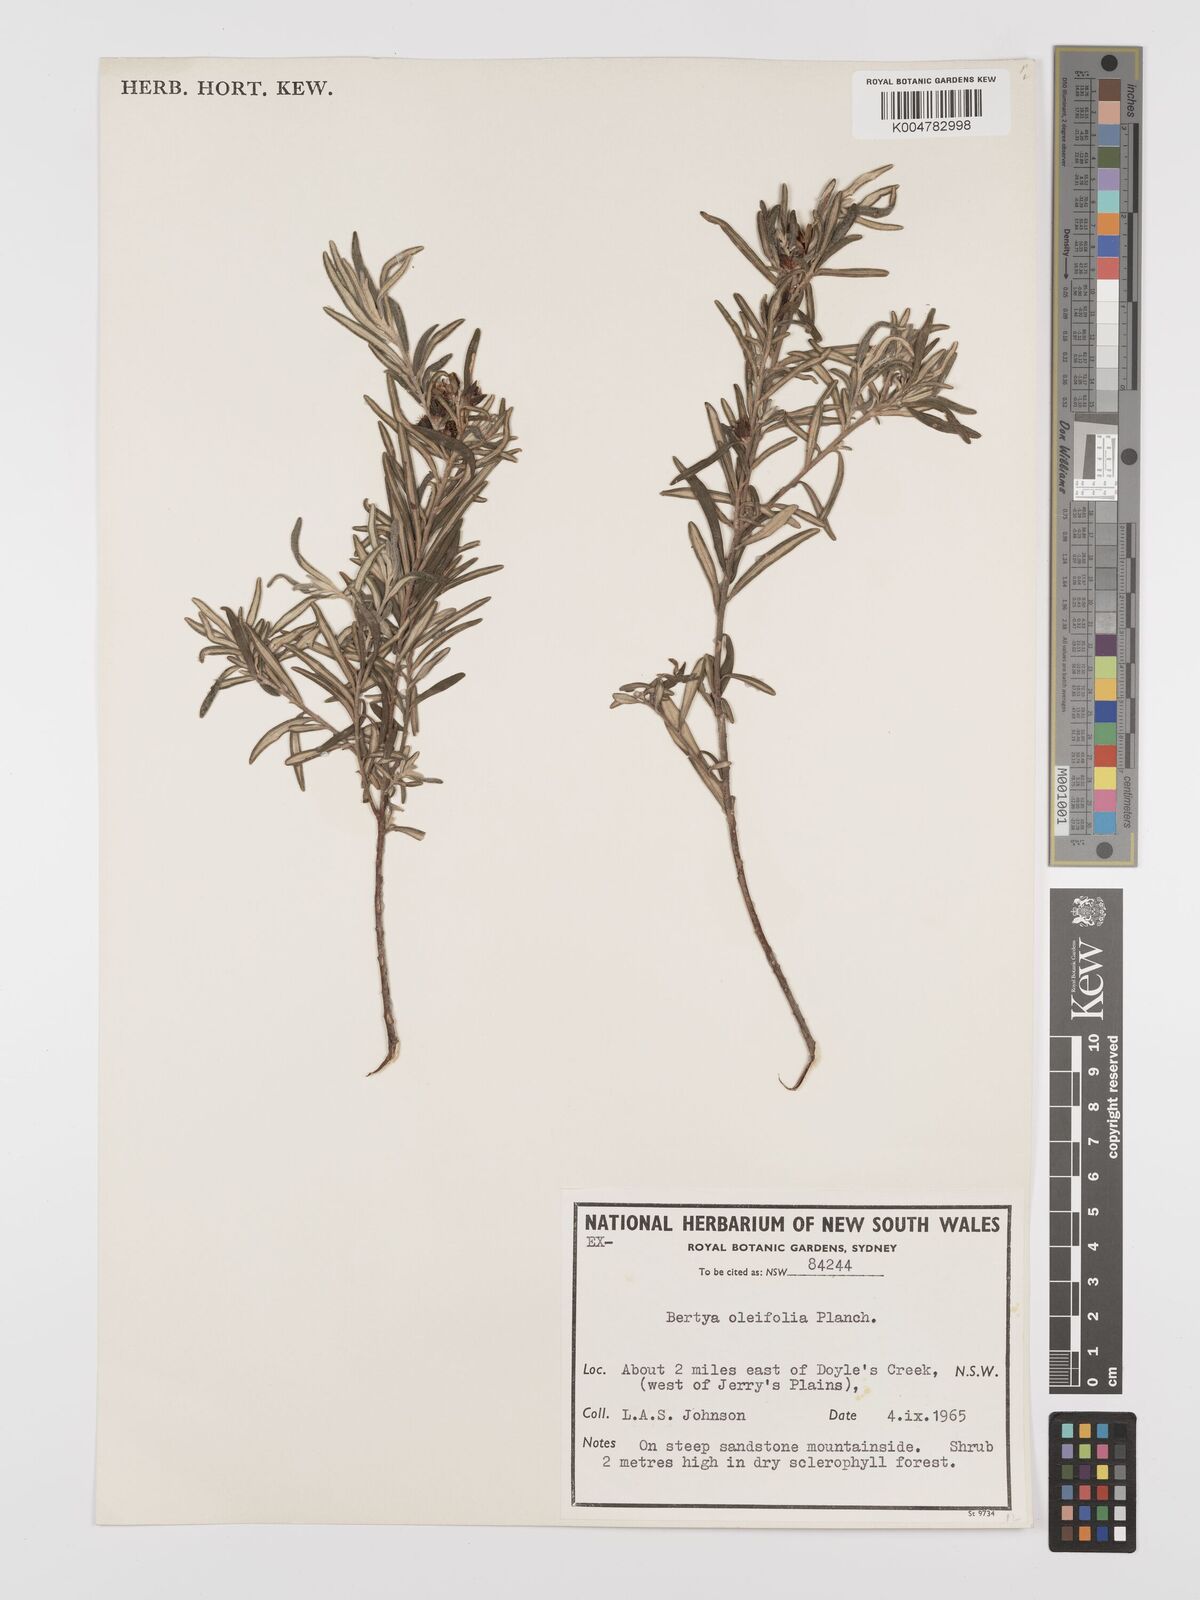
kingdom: Plantae
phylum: Tracheophyta
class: Magnoliopsida
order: Malpighiales
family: Euphorbiaceae
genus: Bertya
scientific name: Bertya oleifolia
